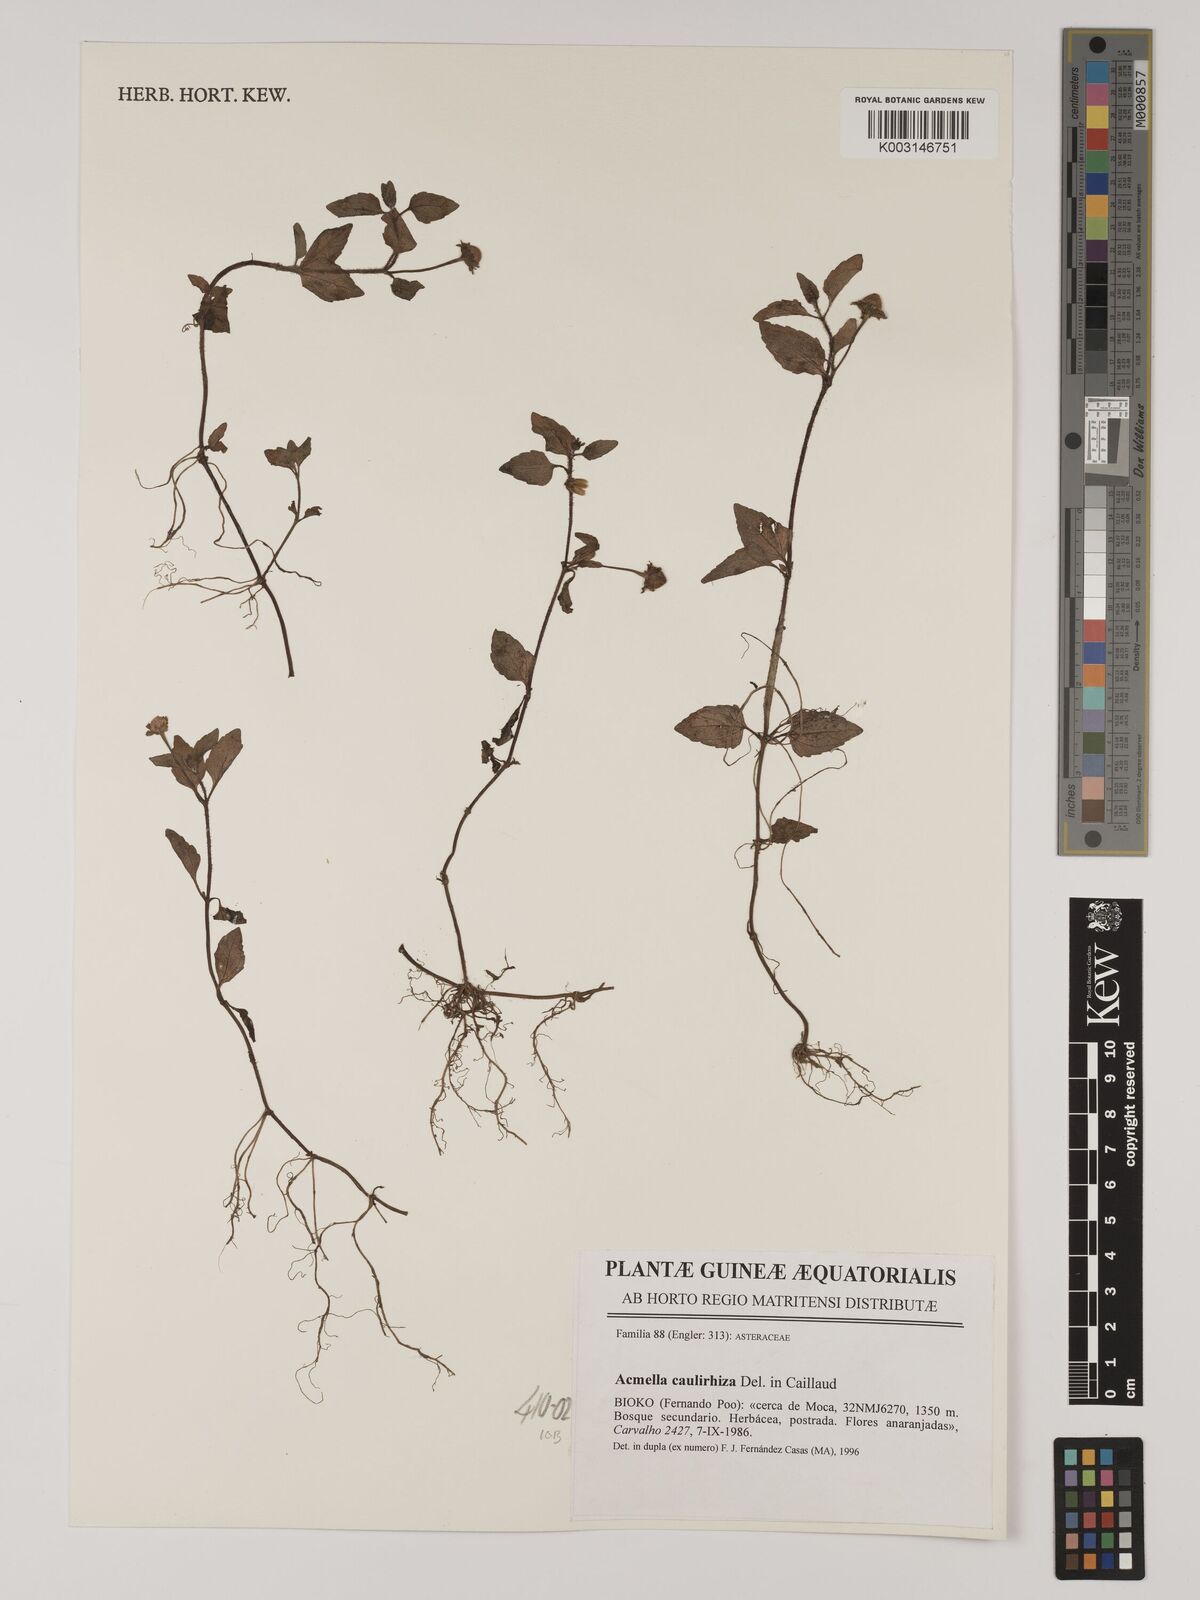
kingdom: Plantae
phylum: Tracheophyta
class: Magnoliopsida
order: Asterales
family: Asteraceae
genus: Acmella
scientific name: Acmella caulirhiza
